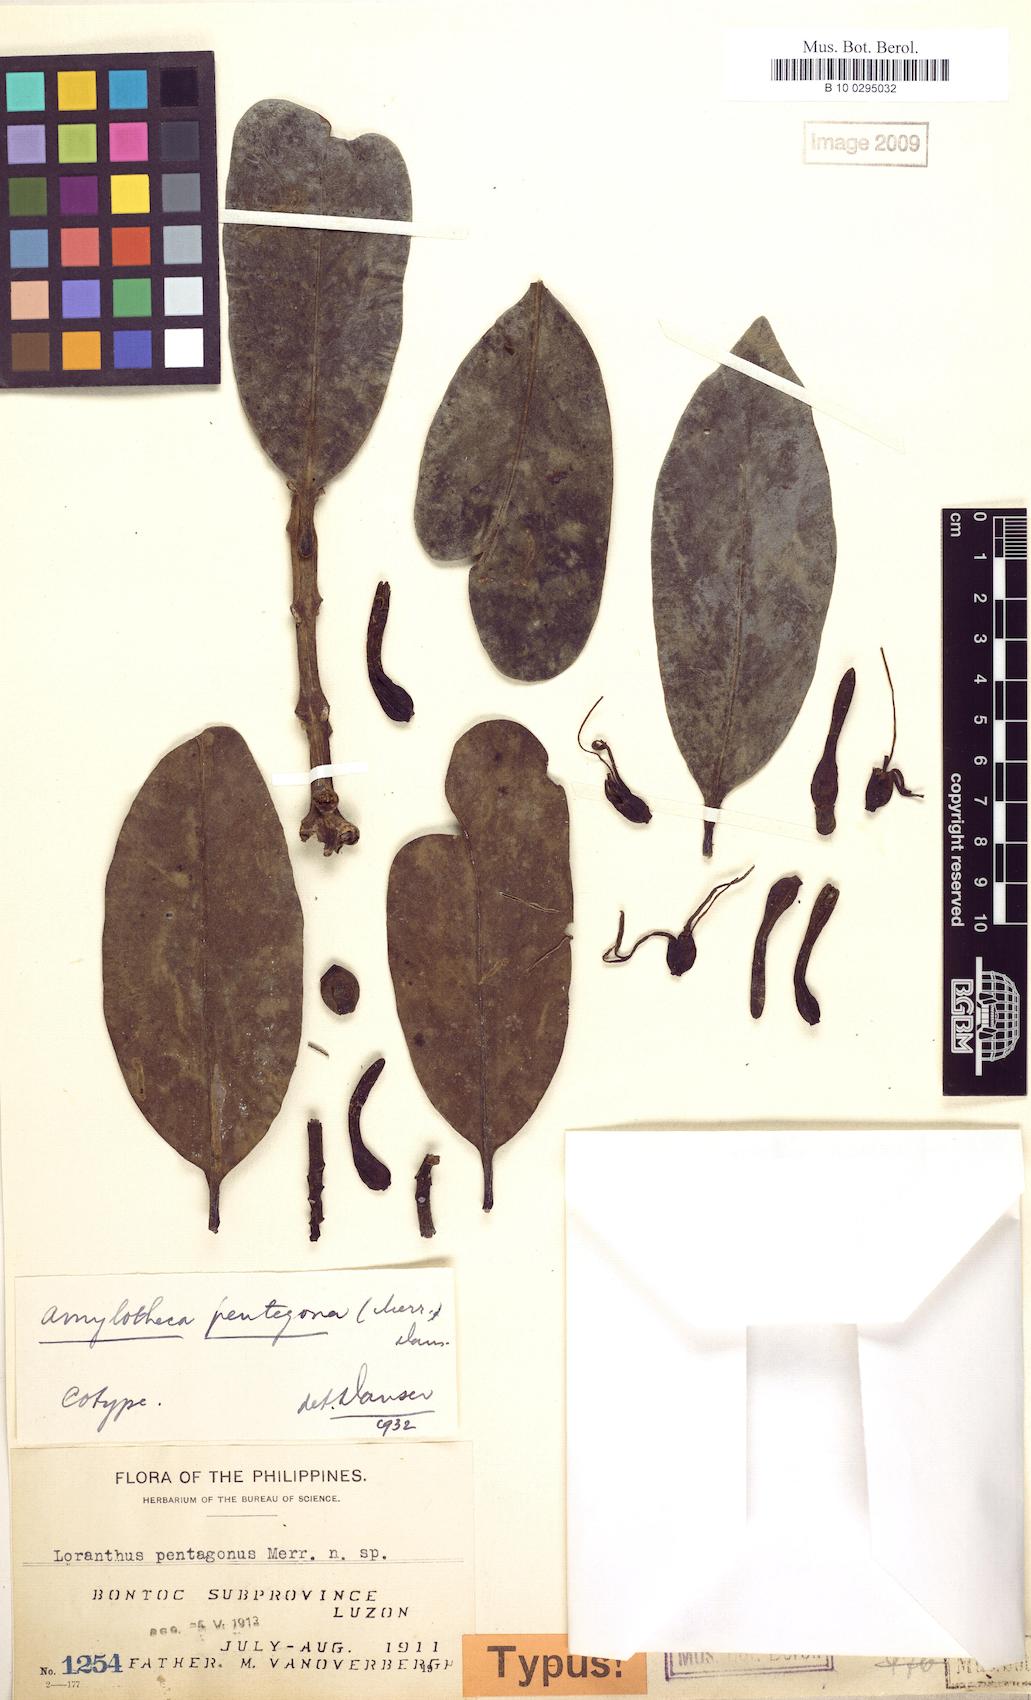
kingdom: Plantae
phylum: Tracheophyta
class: Magnoliopsida
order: Santalales
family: Loranthaceae
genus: Decaisnina
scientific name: Decaisnina viridis
